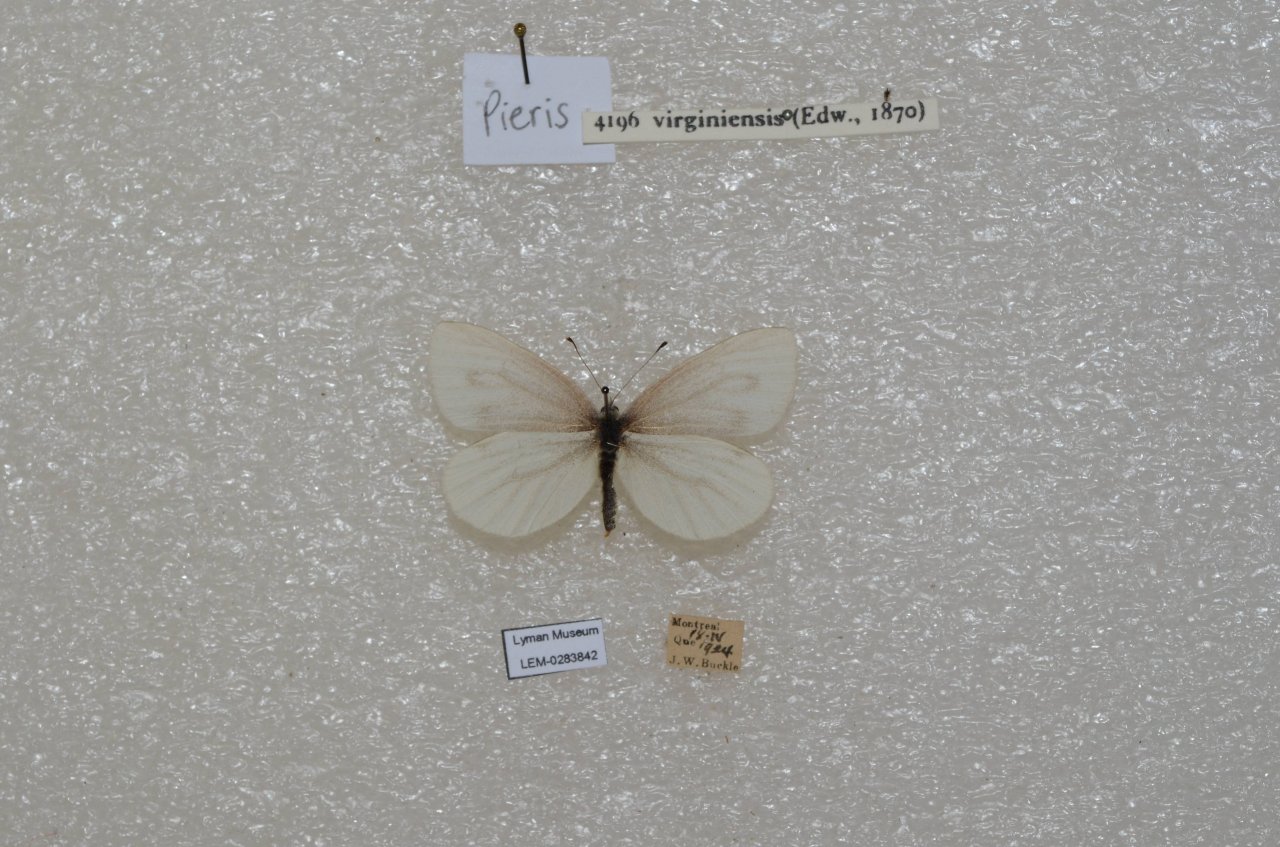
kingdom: Animalia
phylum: Arthropoda
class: Insecta
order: Lepidoptera
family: Pieridae
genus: Pieris
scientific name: Pieris virginiensis
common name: West Virginia White
